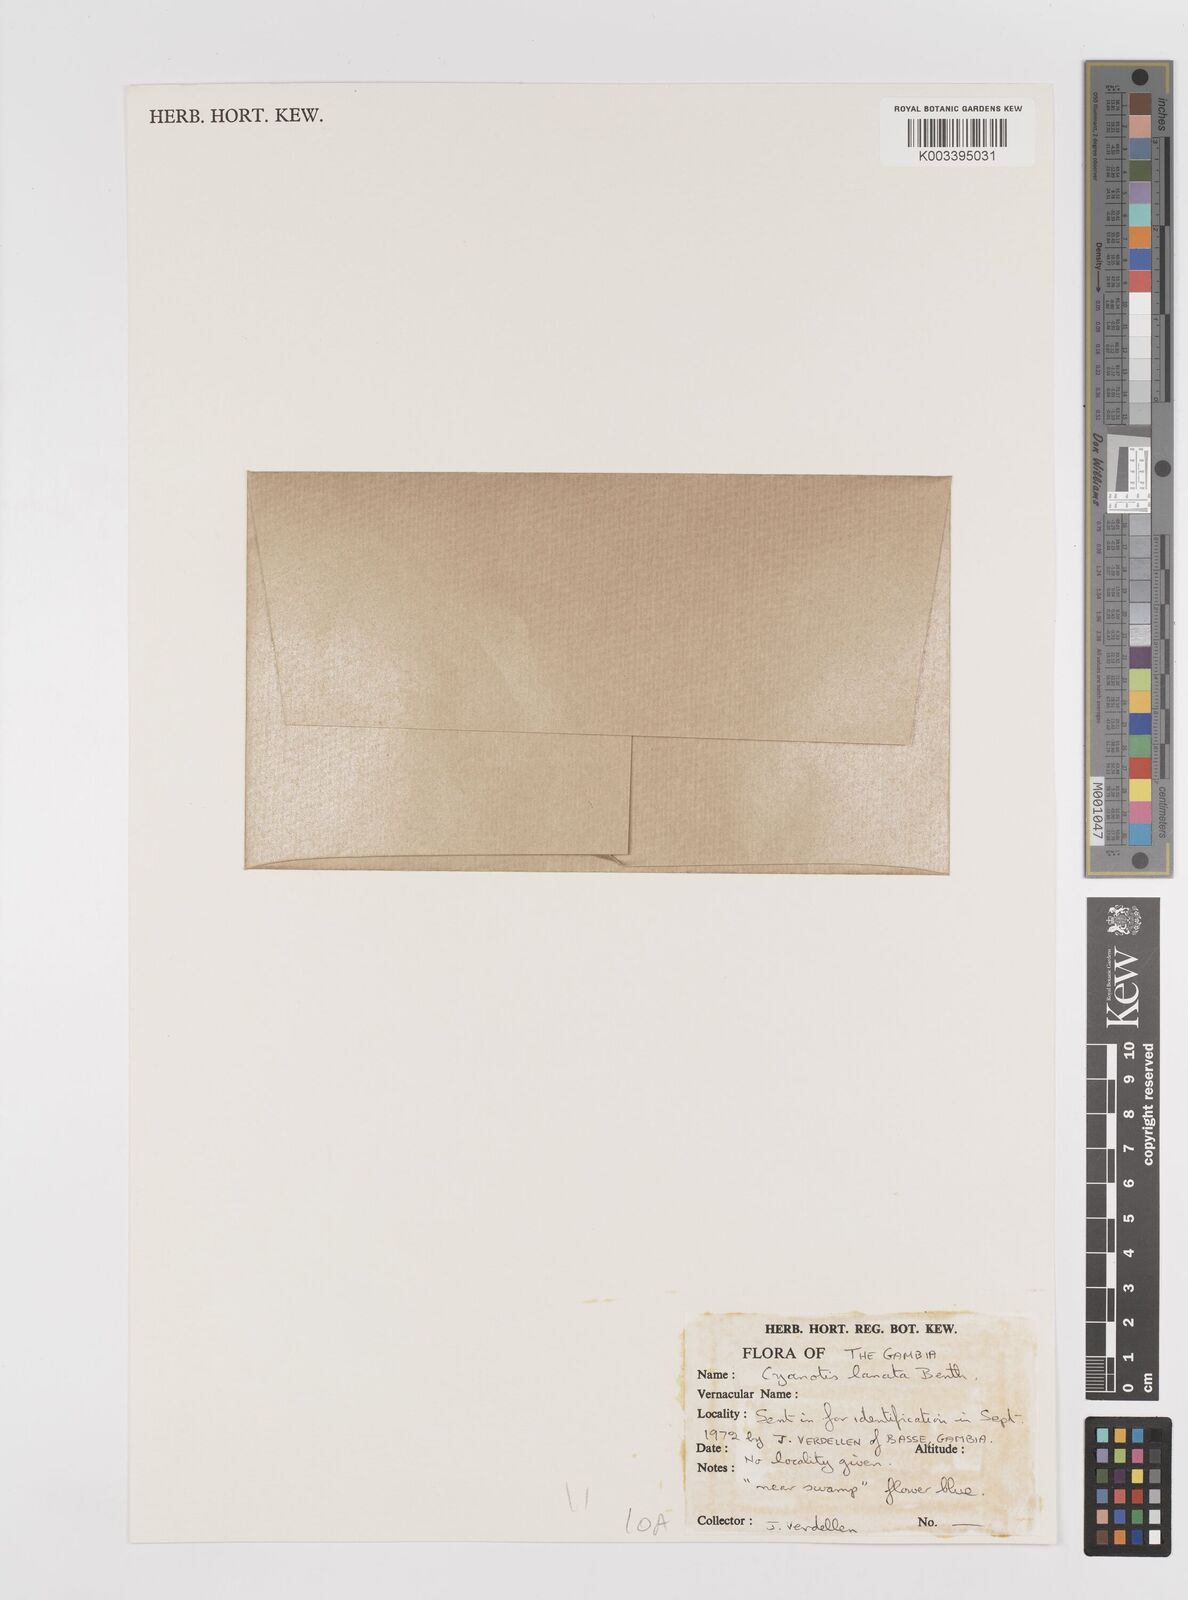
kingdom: Plantae
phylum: Tracheophyta
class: Liliopsida
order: Commelinales
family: Commelinaceae
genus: Cyanotis
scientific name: Cyanotis lanata
